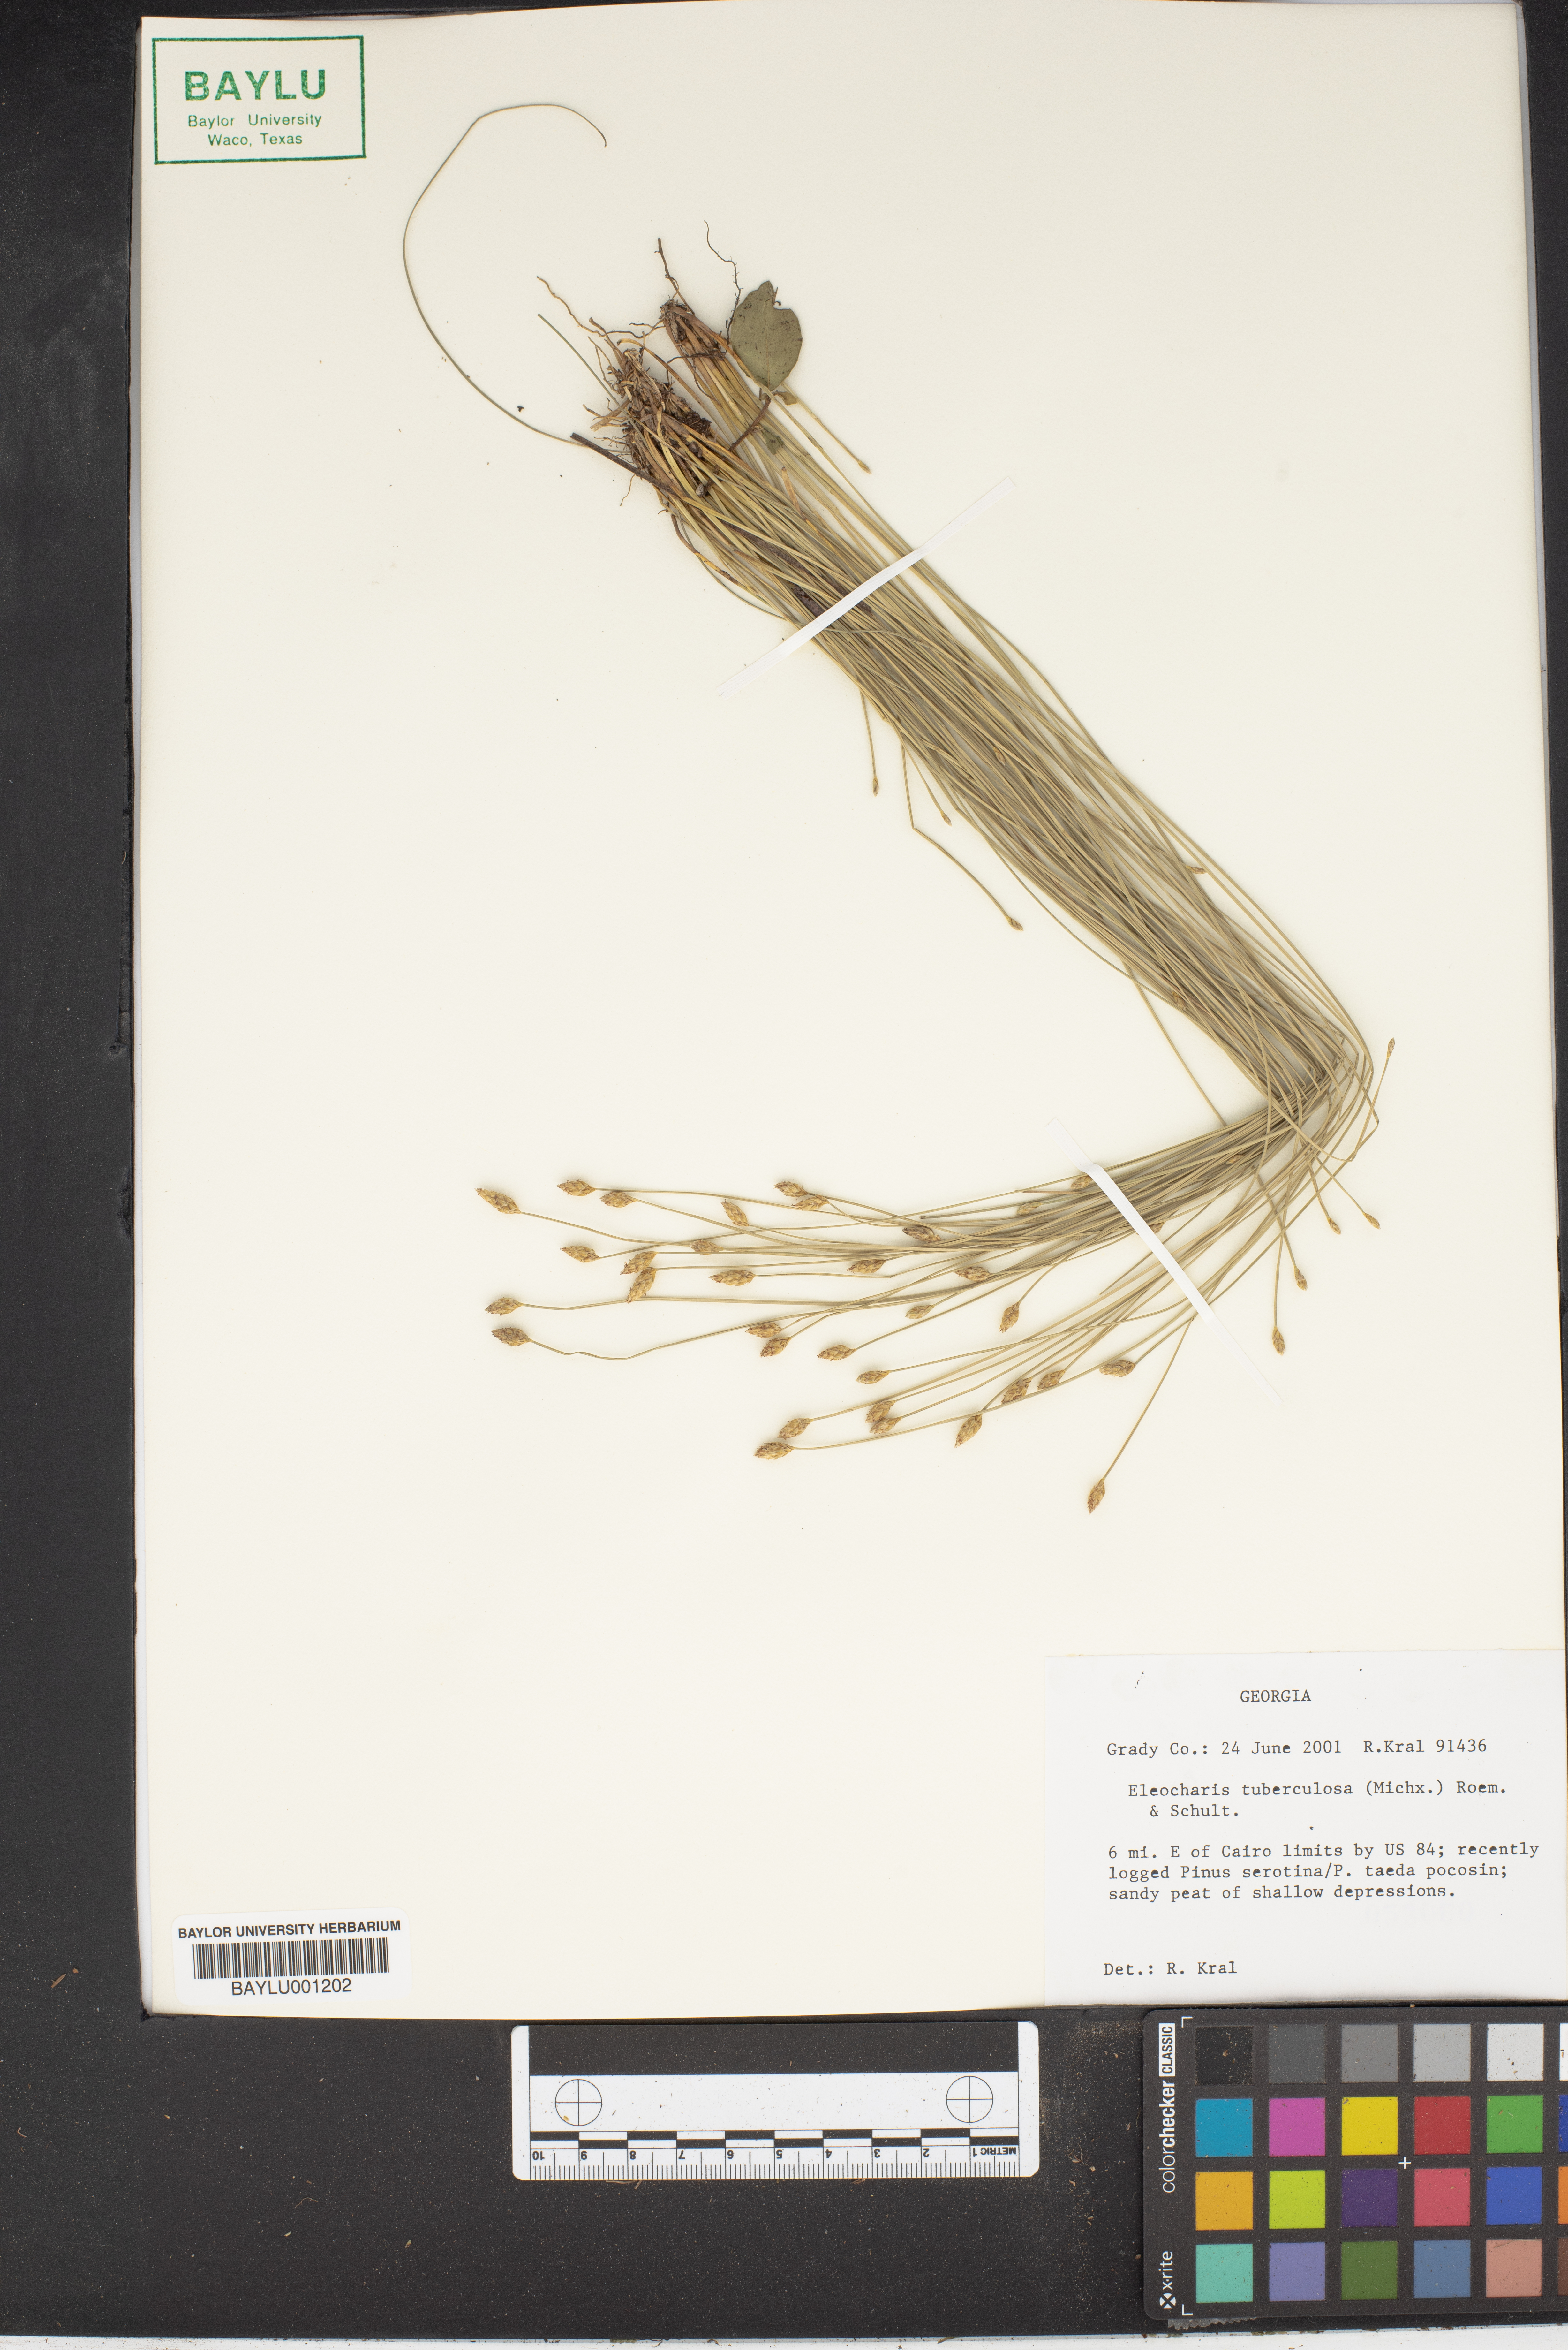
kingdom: Plantae
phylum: Tracheophyta
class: Liliopsida
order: Poales
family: Cyperaceae
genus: Eleocharis
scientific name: Eleocharis tuberculosa
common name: Cone-cup spikerush
